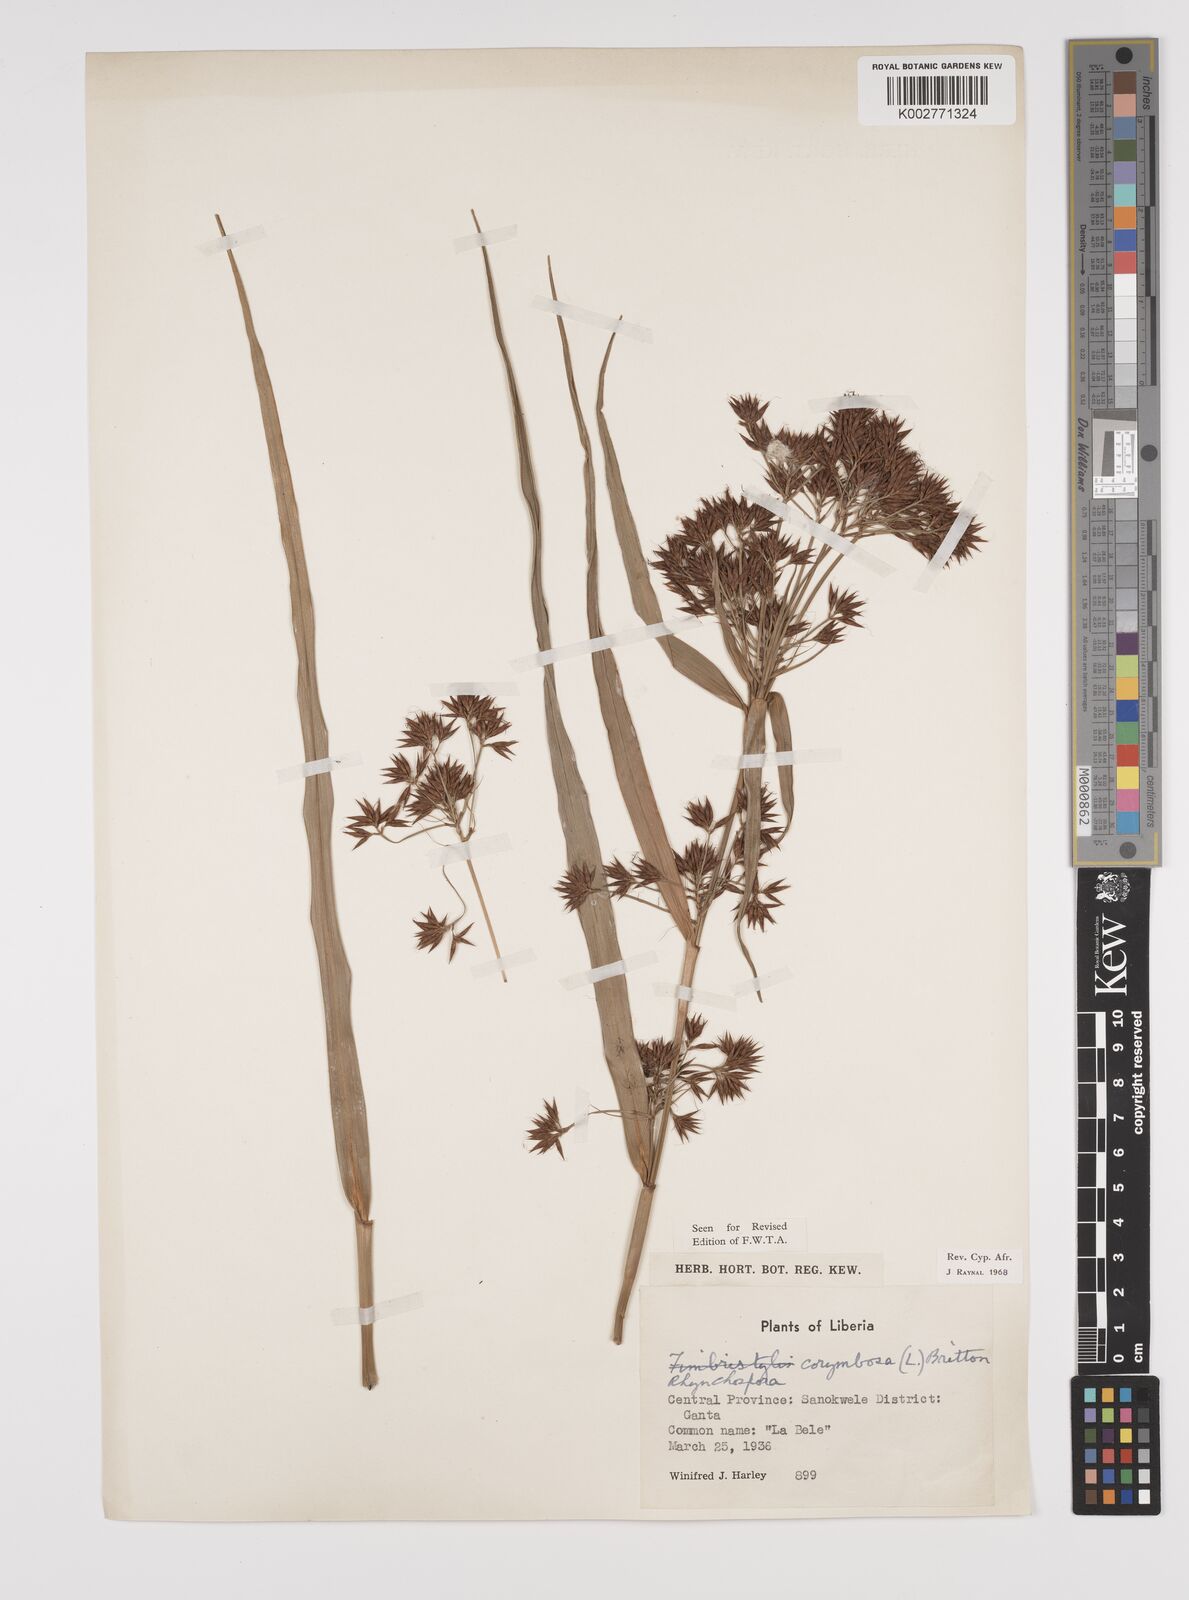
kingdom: Plantae
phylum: Tracheophyta
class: Liliopsida
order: Poales
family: Cyperaceae
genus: Rhynchospora
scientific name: Rhynchospora corymbosa
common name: Golden beak sedge
